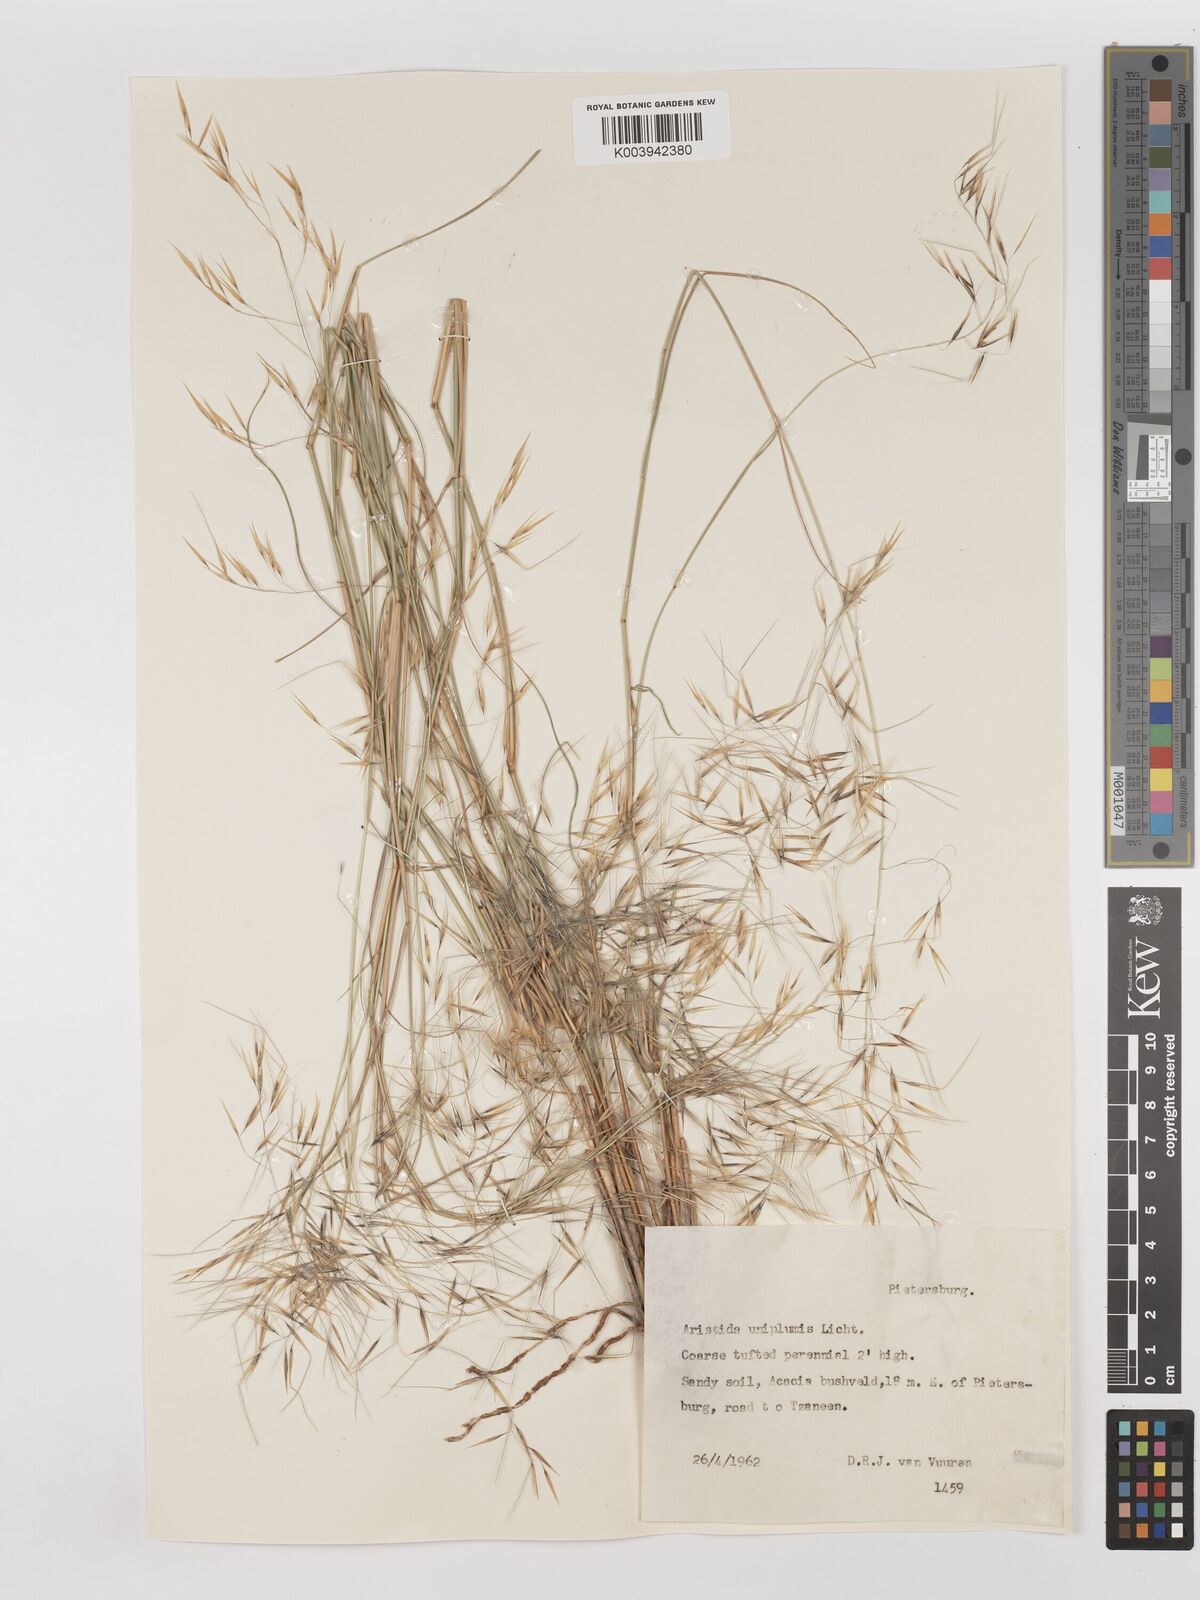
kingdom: Plantae
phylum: Tracheophyta
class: Liliopsida
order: Poales
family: Poaceae
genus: Stipagrostis
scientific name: Stipagrostis uniplumis
